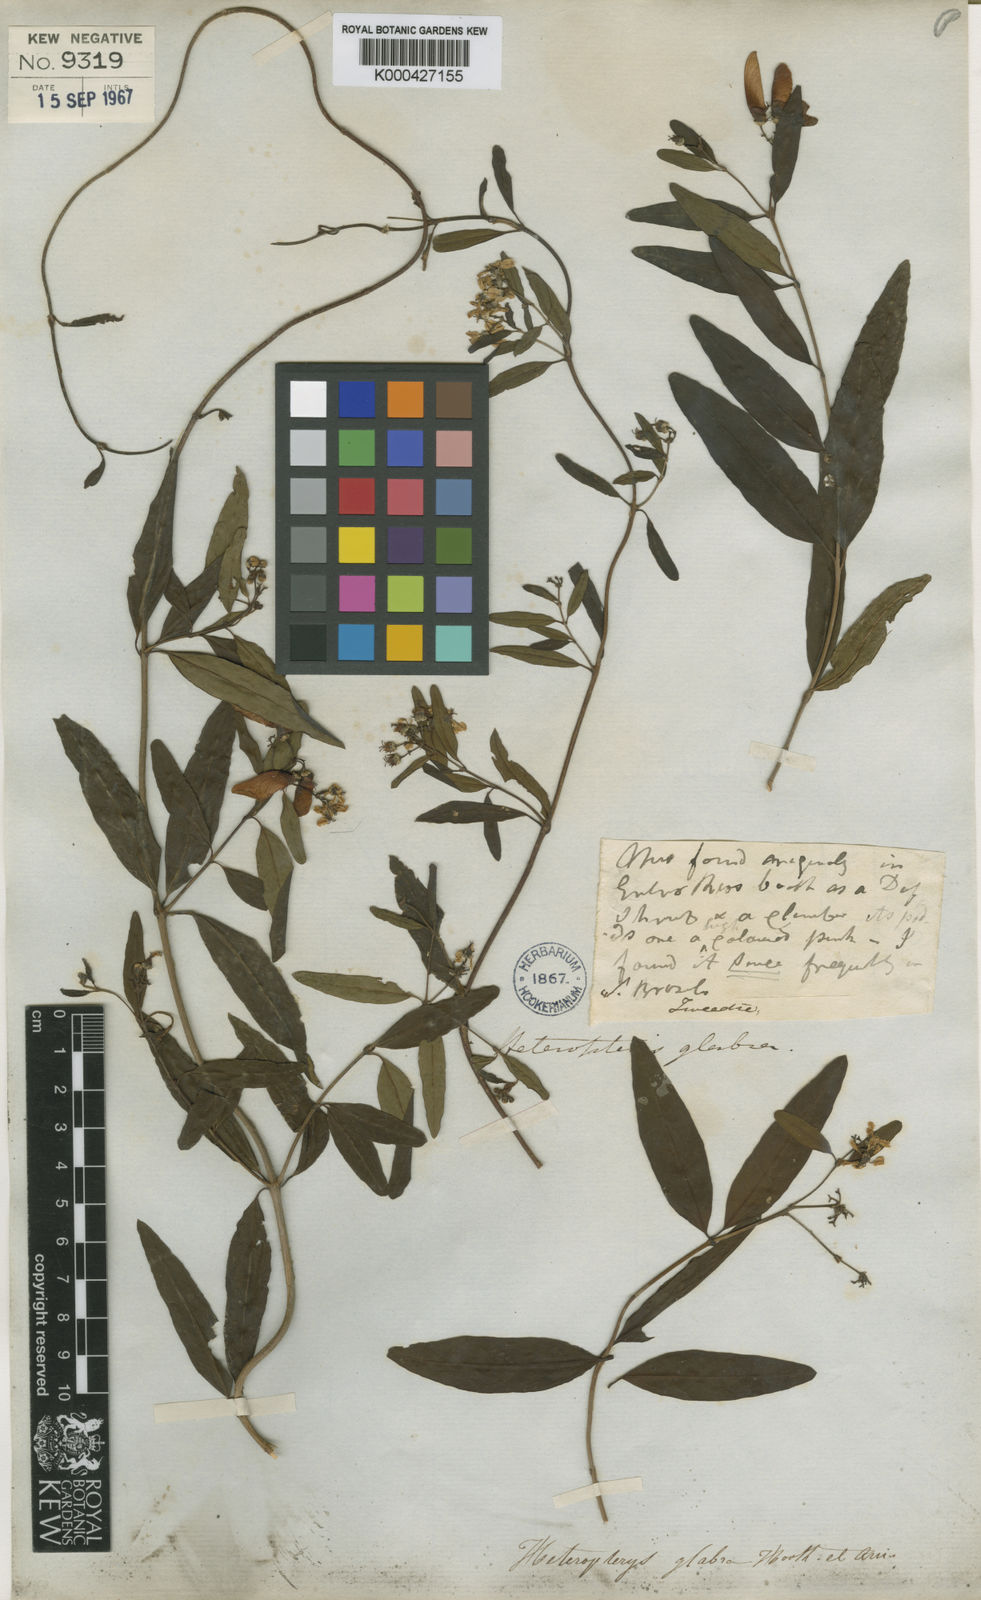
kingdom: Plantae
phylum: Tracheophyta
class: Magnoliopsida
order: Malpighiales
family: Malpighiaceae
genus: Heteropterys
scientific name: Heteropterys glabra
